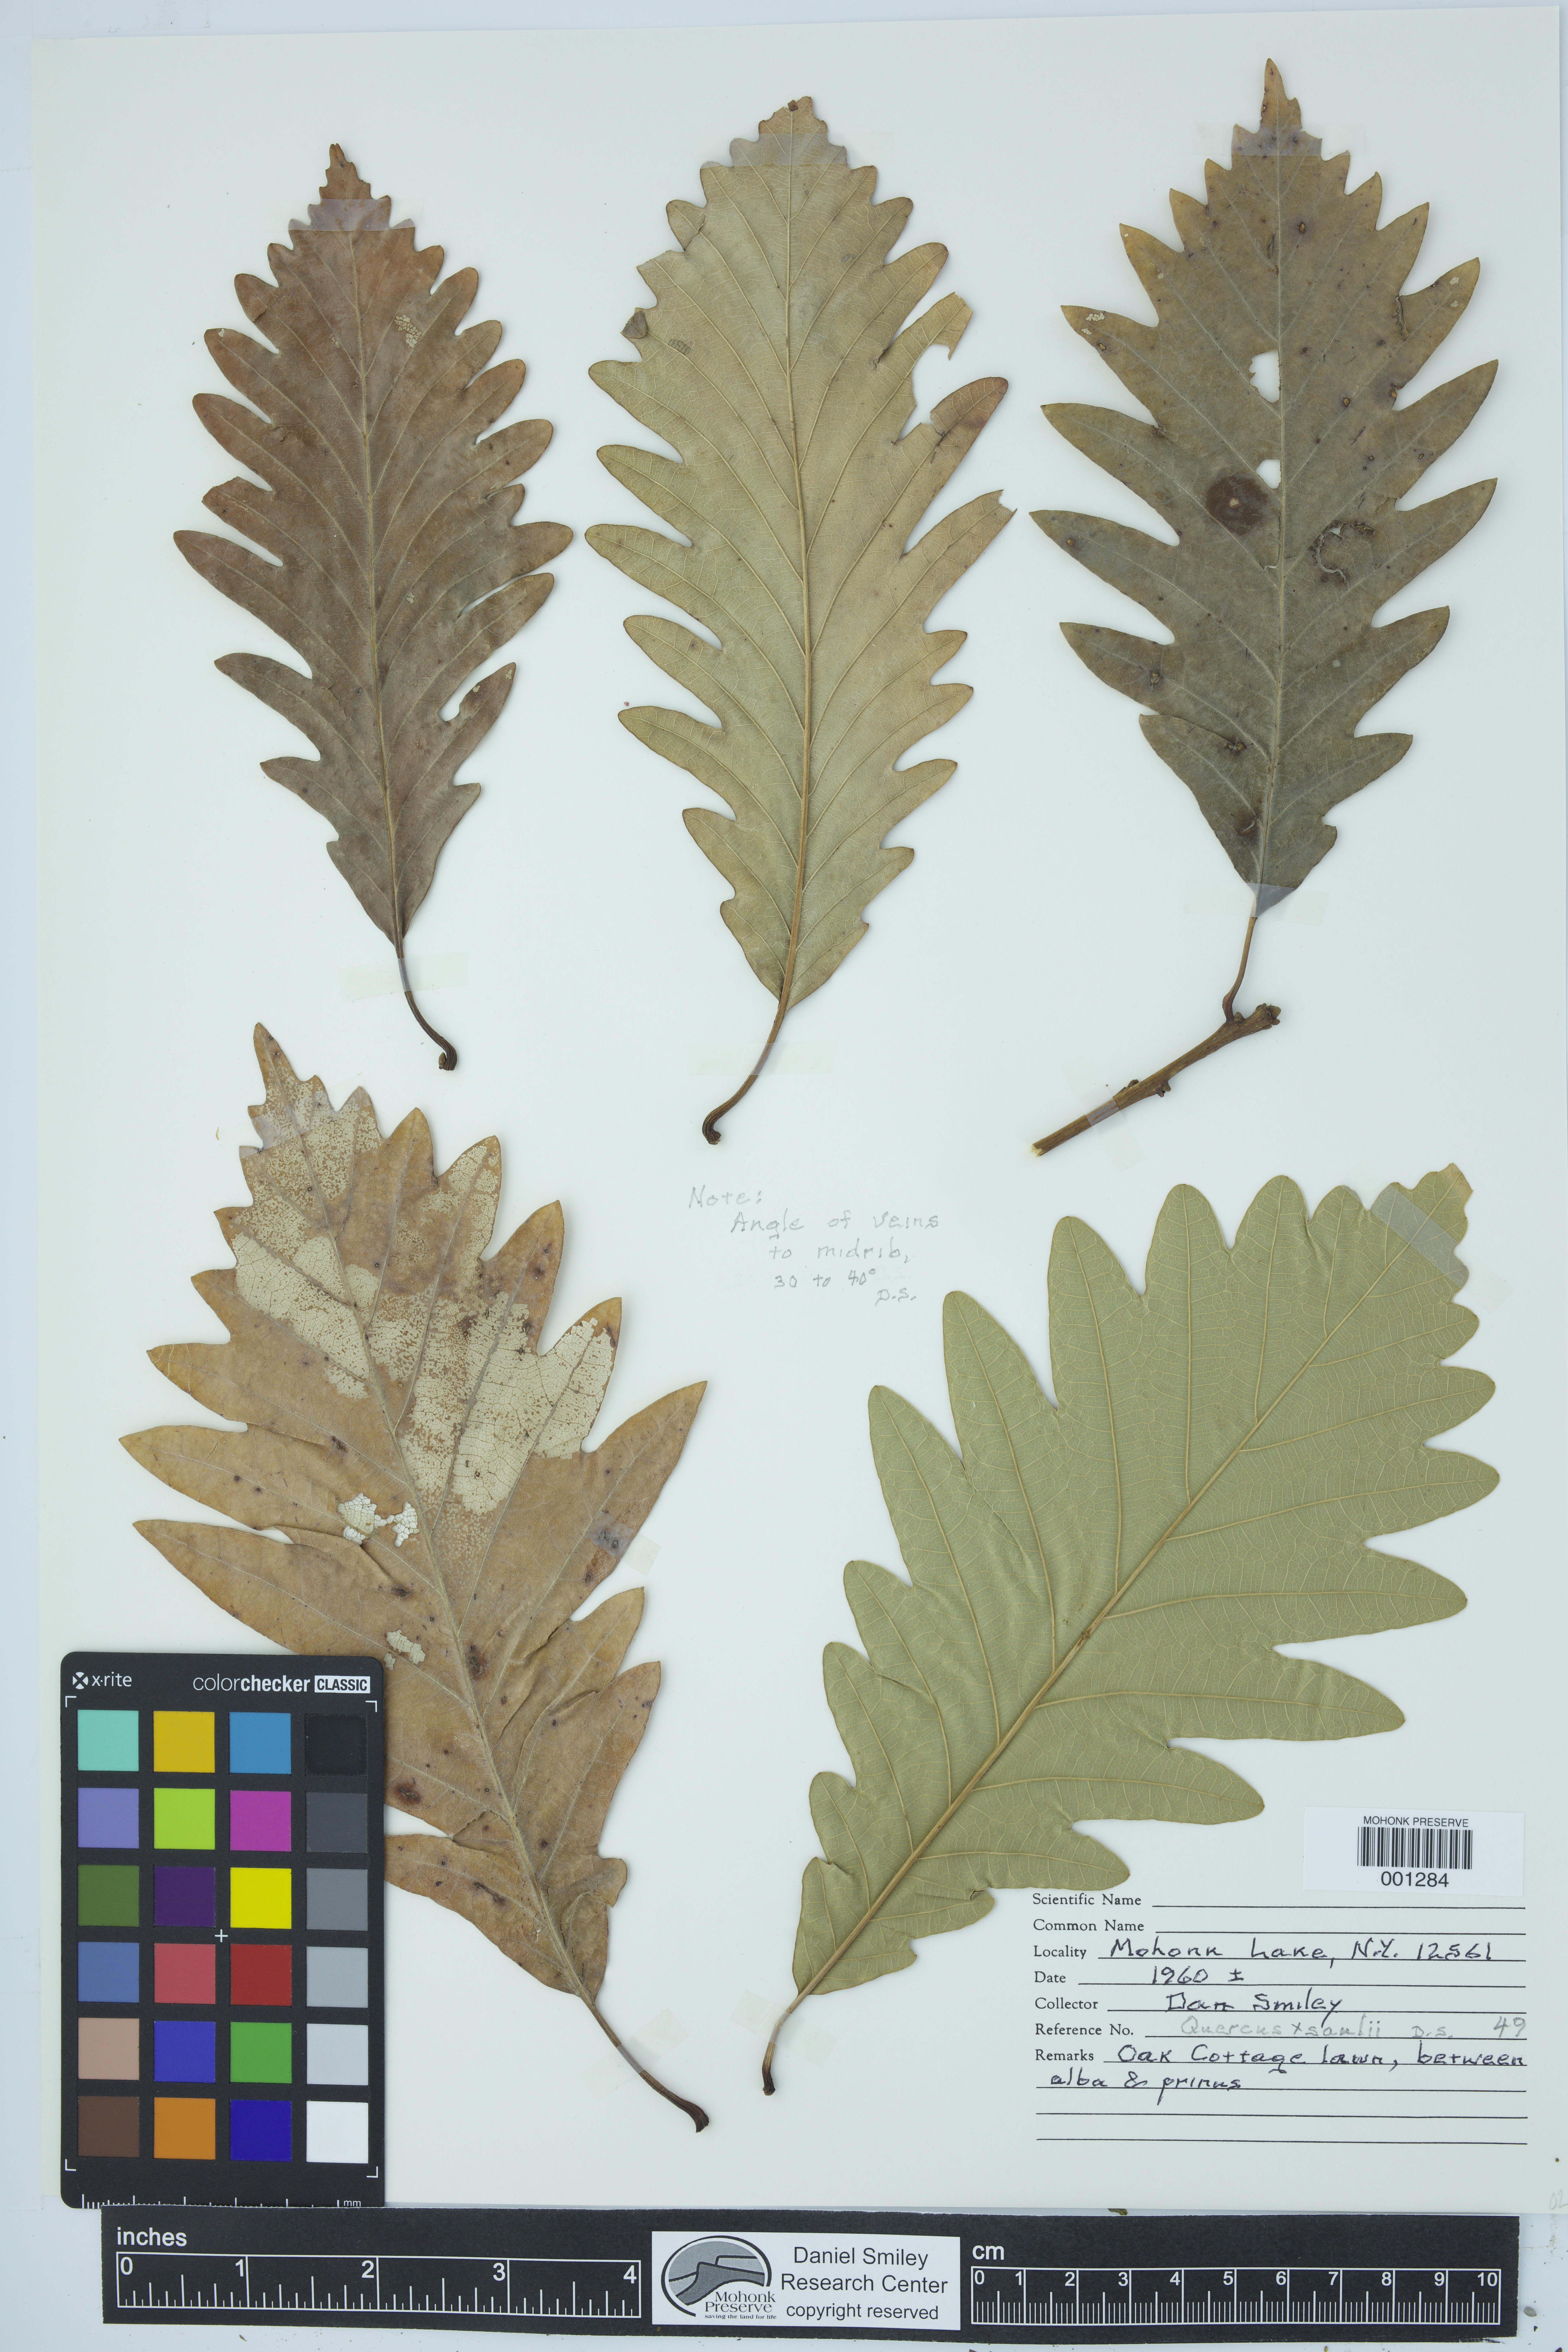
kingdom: Plantae
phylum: Tracheophyta
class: Magnoliopsida
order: Fagales
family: Fagaceae
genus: Quercus
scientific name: Quercus saulii
